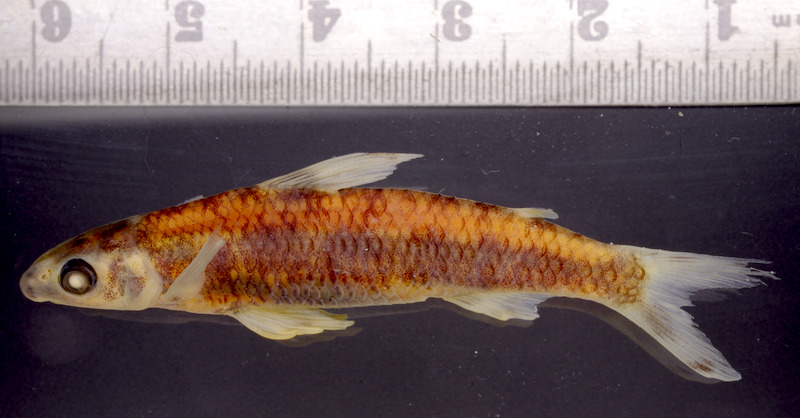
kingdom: Animalia
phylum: Chordata
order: Characiformes
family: Distichodontidae
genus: Nannocharax
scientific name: Nannocharax usongo
